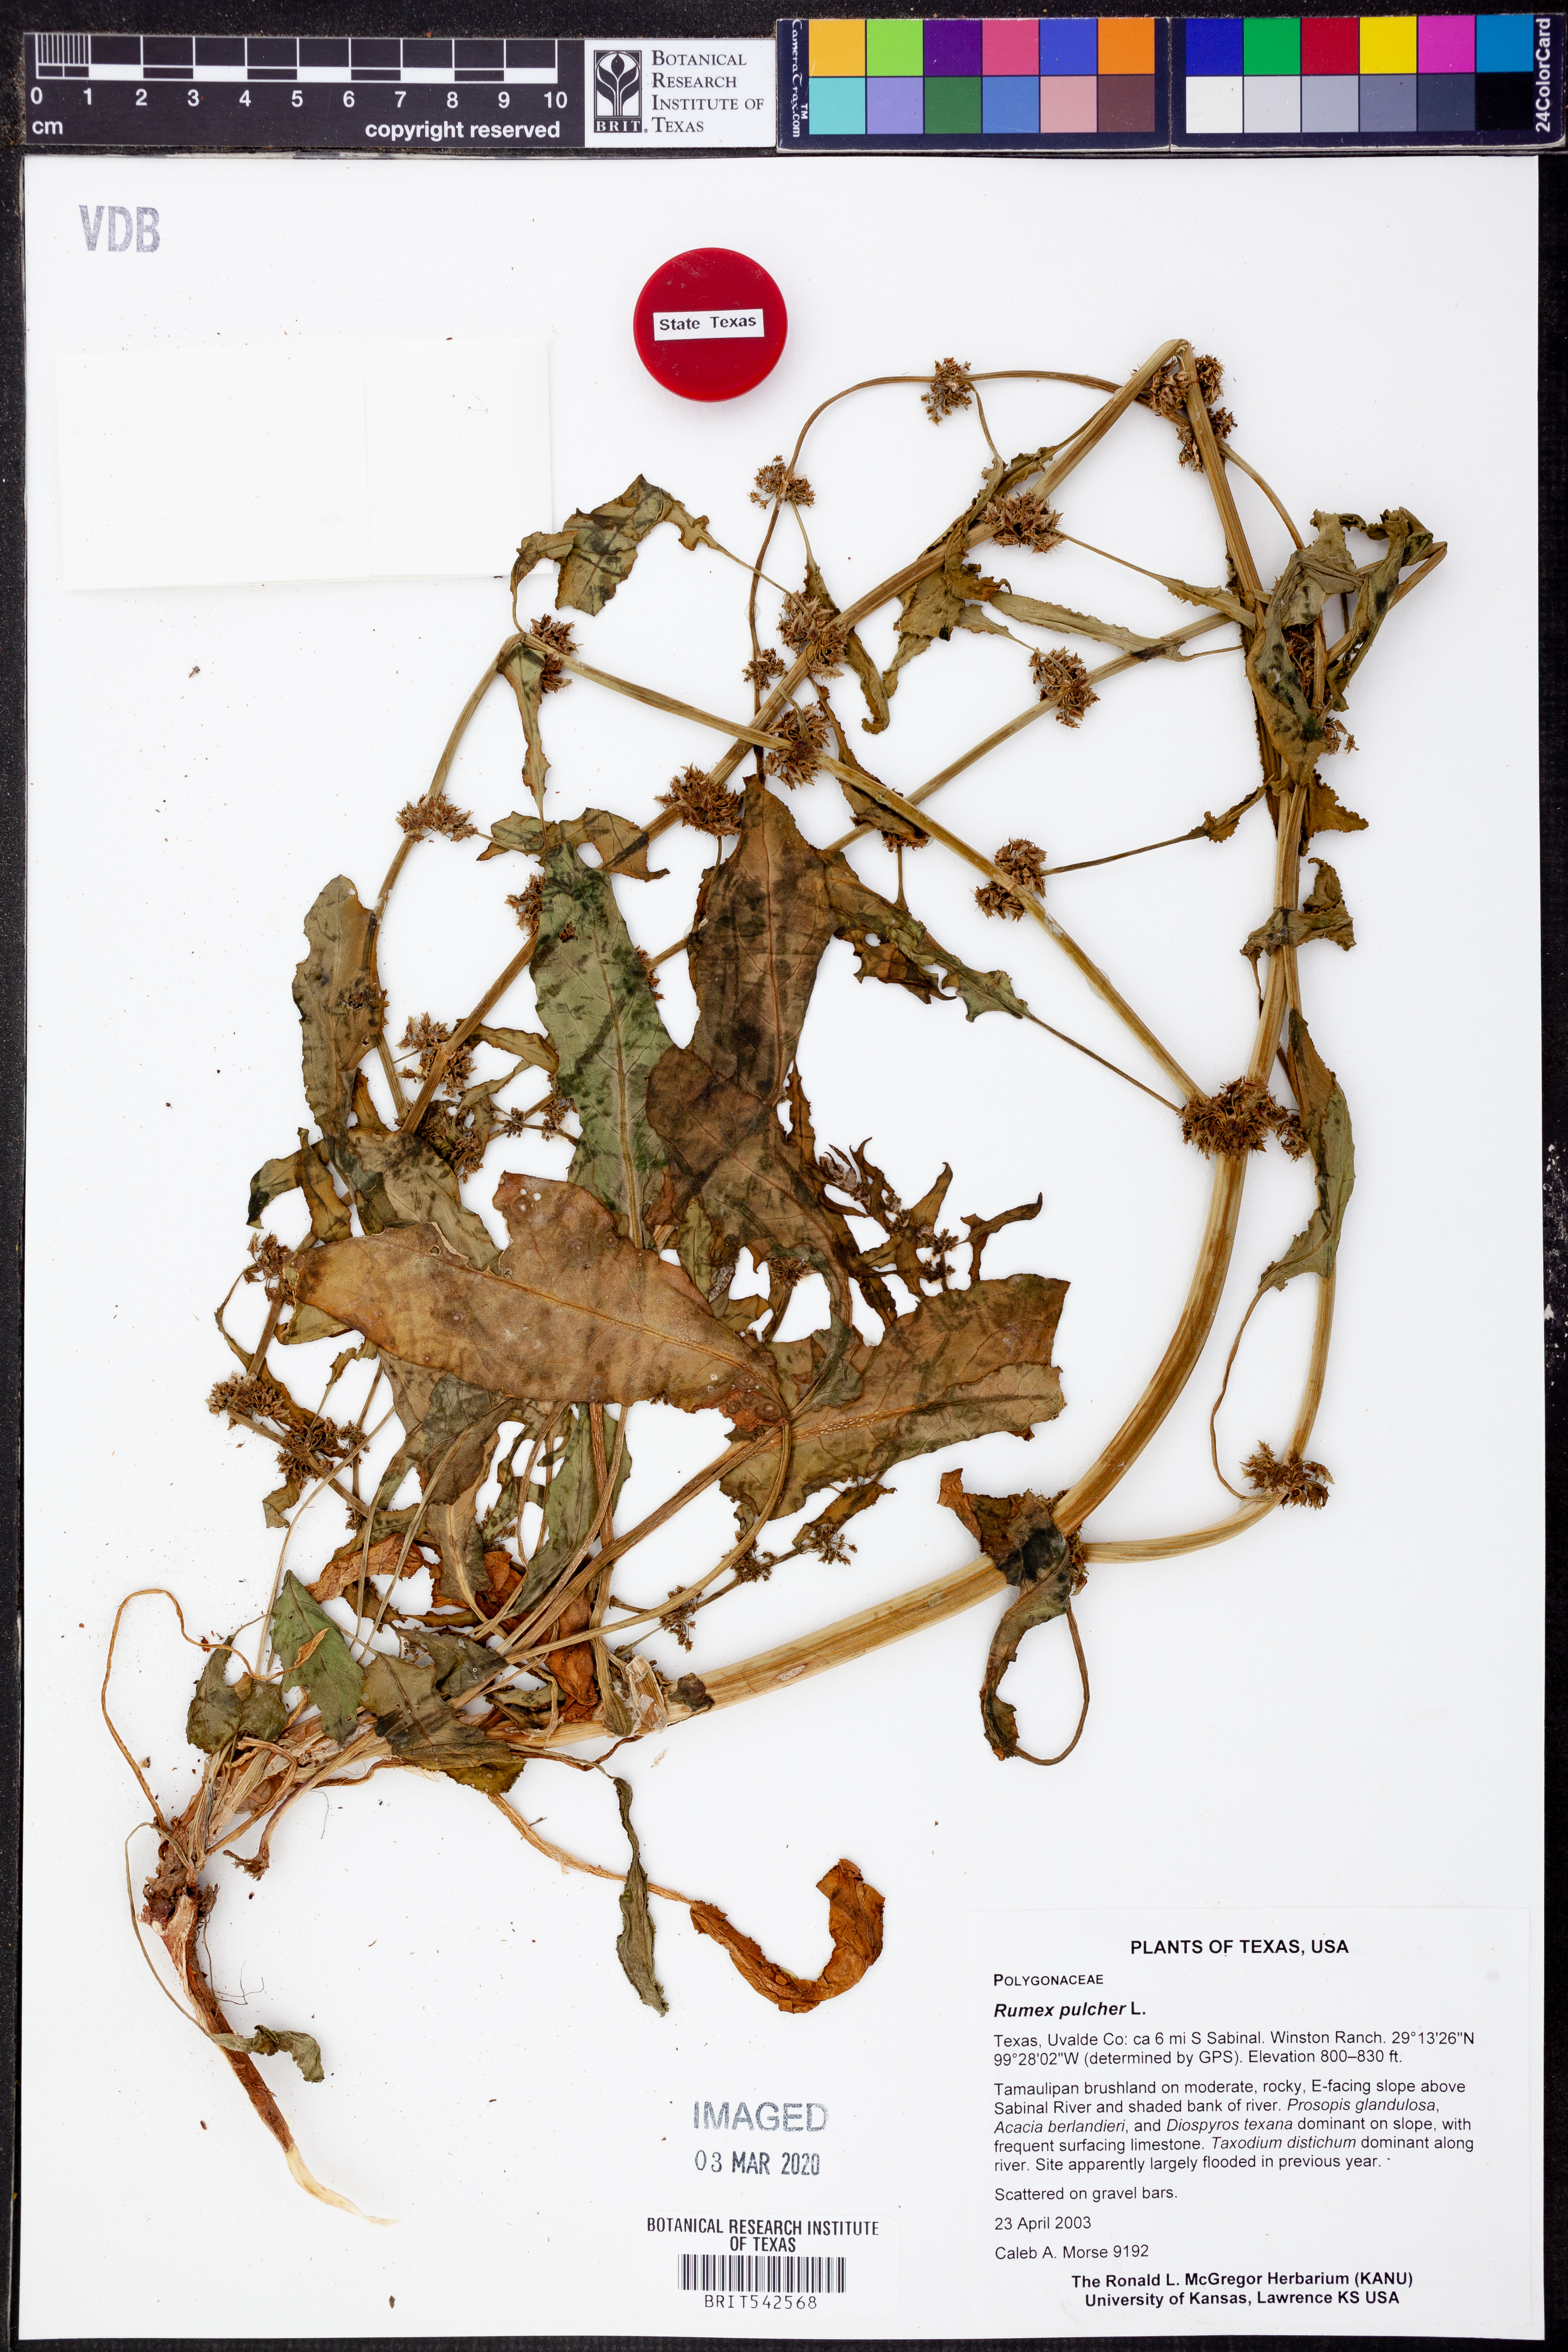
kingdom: Plantae
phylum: Tracheophyta
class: Magnoliopsida
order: Caryophyllales
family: Polygonaceae
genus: Rumex
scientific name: Rumex pulcher
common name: Fiddle dock
